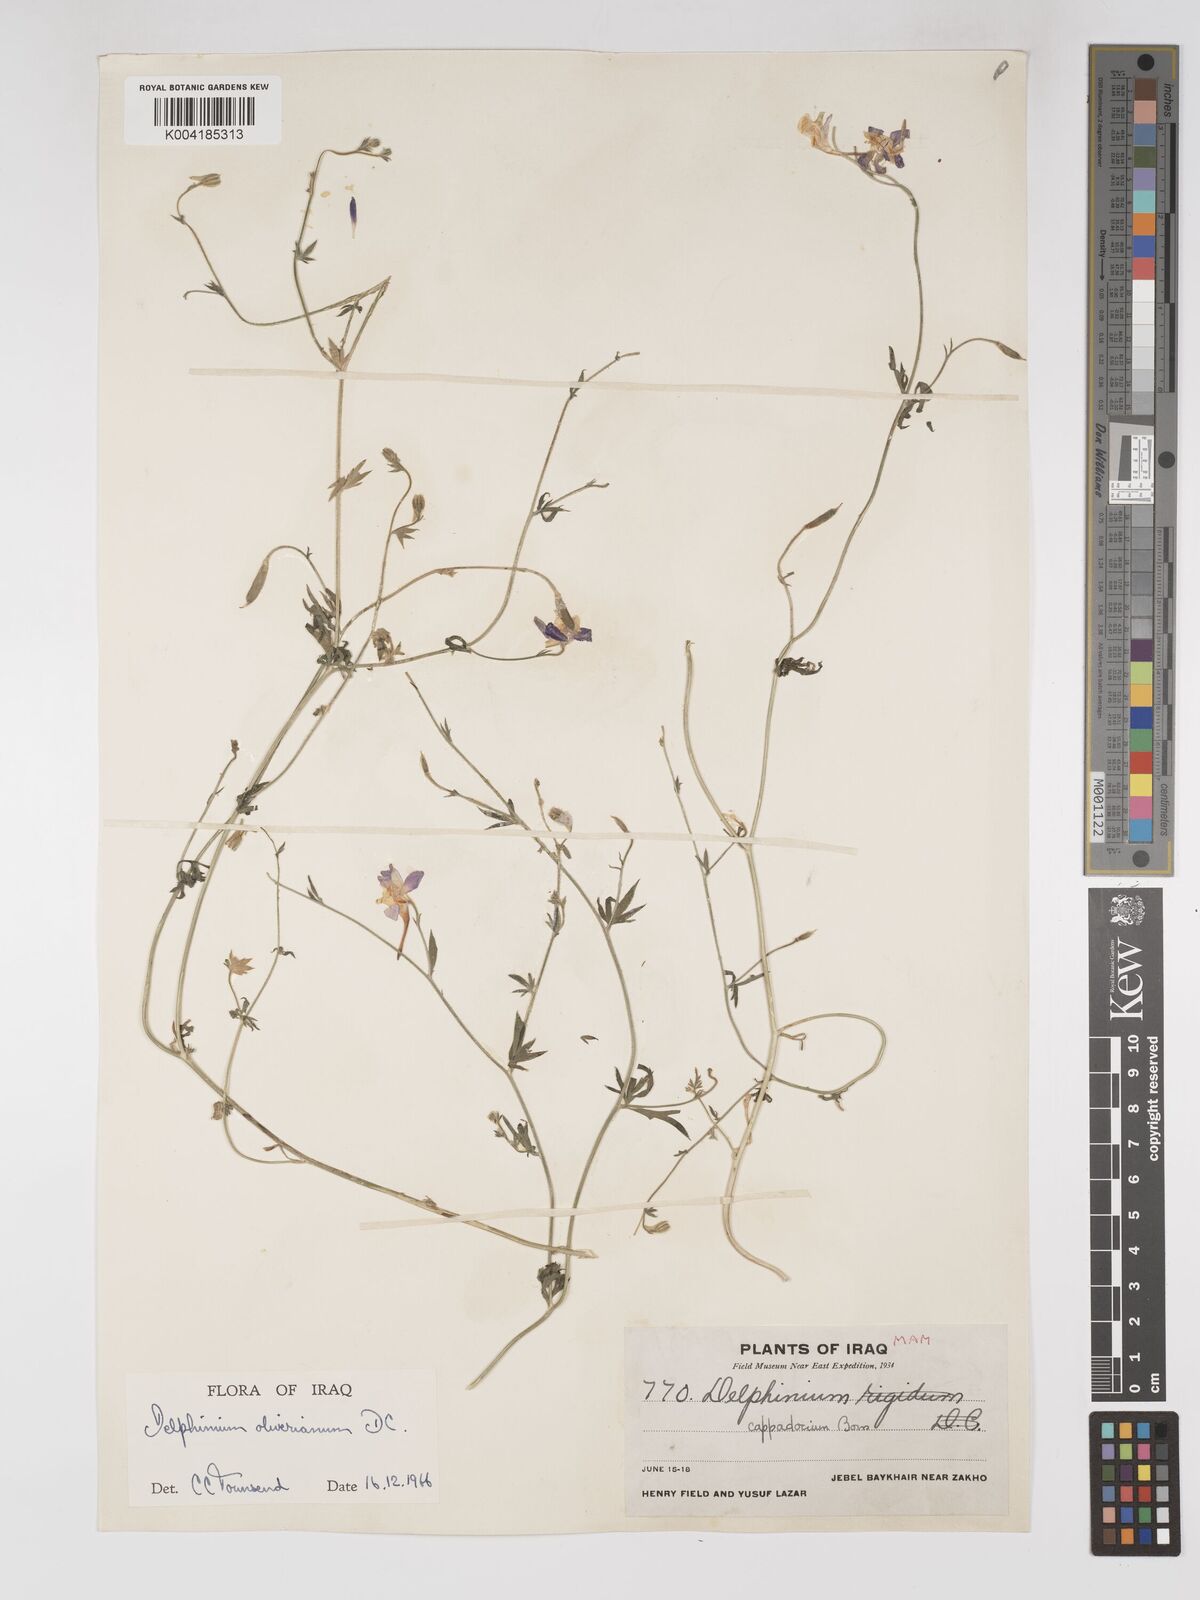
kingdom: Plantae
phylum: Tracheophyta
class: Magnoliopsida
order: Ranunculales
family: Ranunculaceae
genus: Delphinium
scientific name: Delphinium oliverianum
